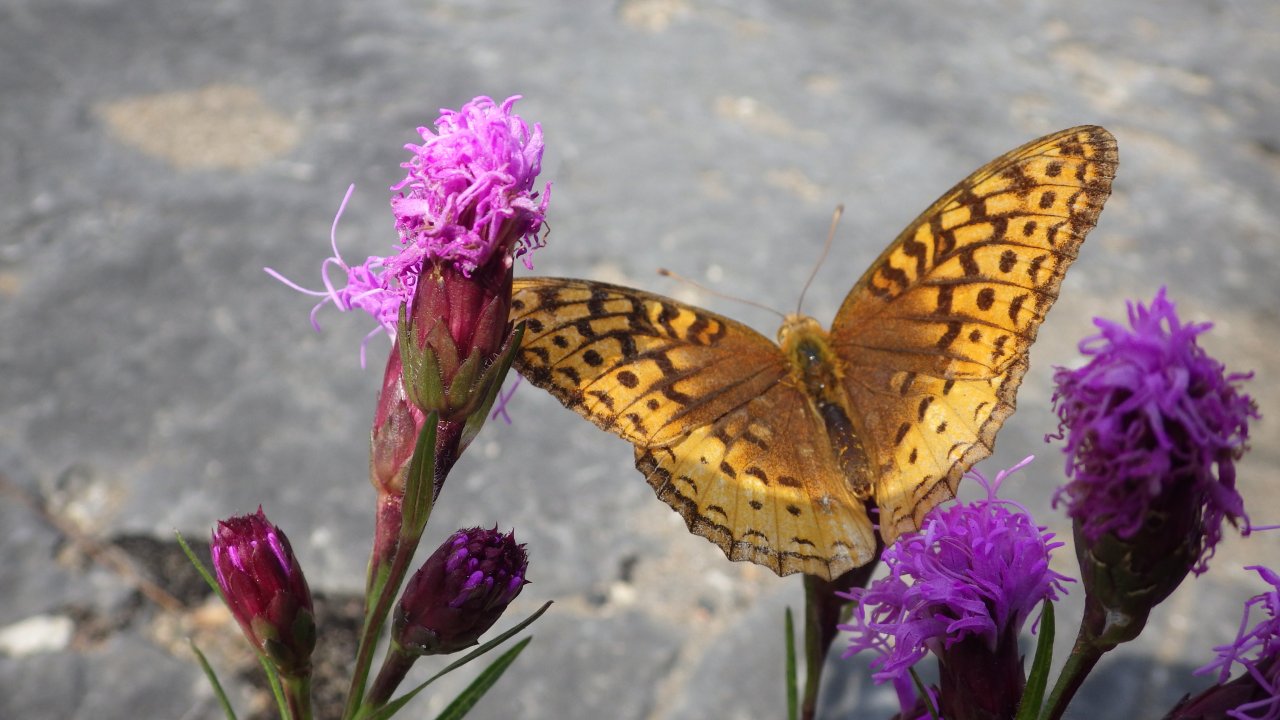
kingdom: Animalia
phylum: Arthropoda
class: Insecta
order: Lepidoptera
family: Nymphalidae
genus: Speyeria
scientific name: Speyeria cybele
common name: Great Spangled Fritillary
